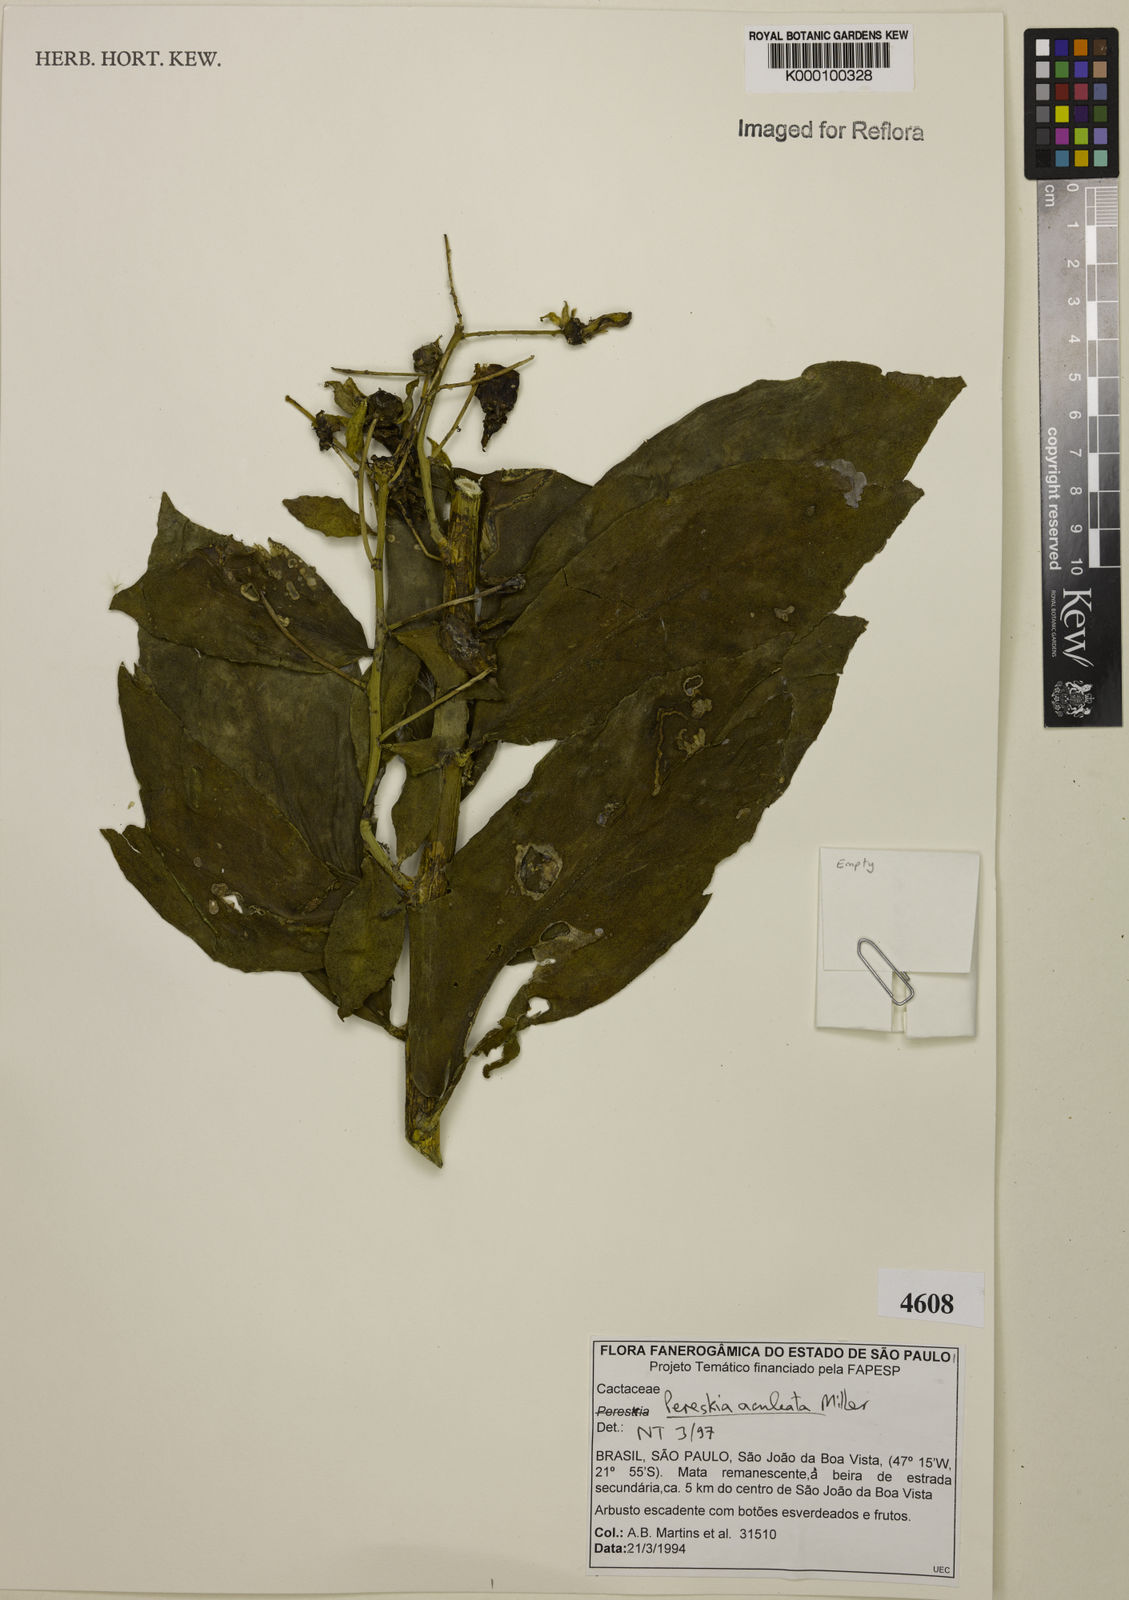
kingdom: Plantae
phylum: Tracheophyta
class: Magnoliopsida
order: Caryophyllales
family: Cactaceae
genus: Pereskia
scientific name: Pereskia aculeata
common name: Barbados gooseberry
